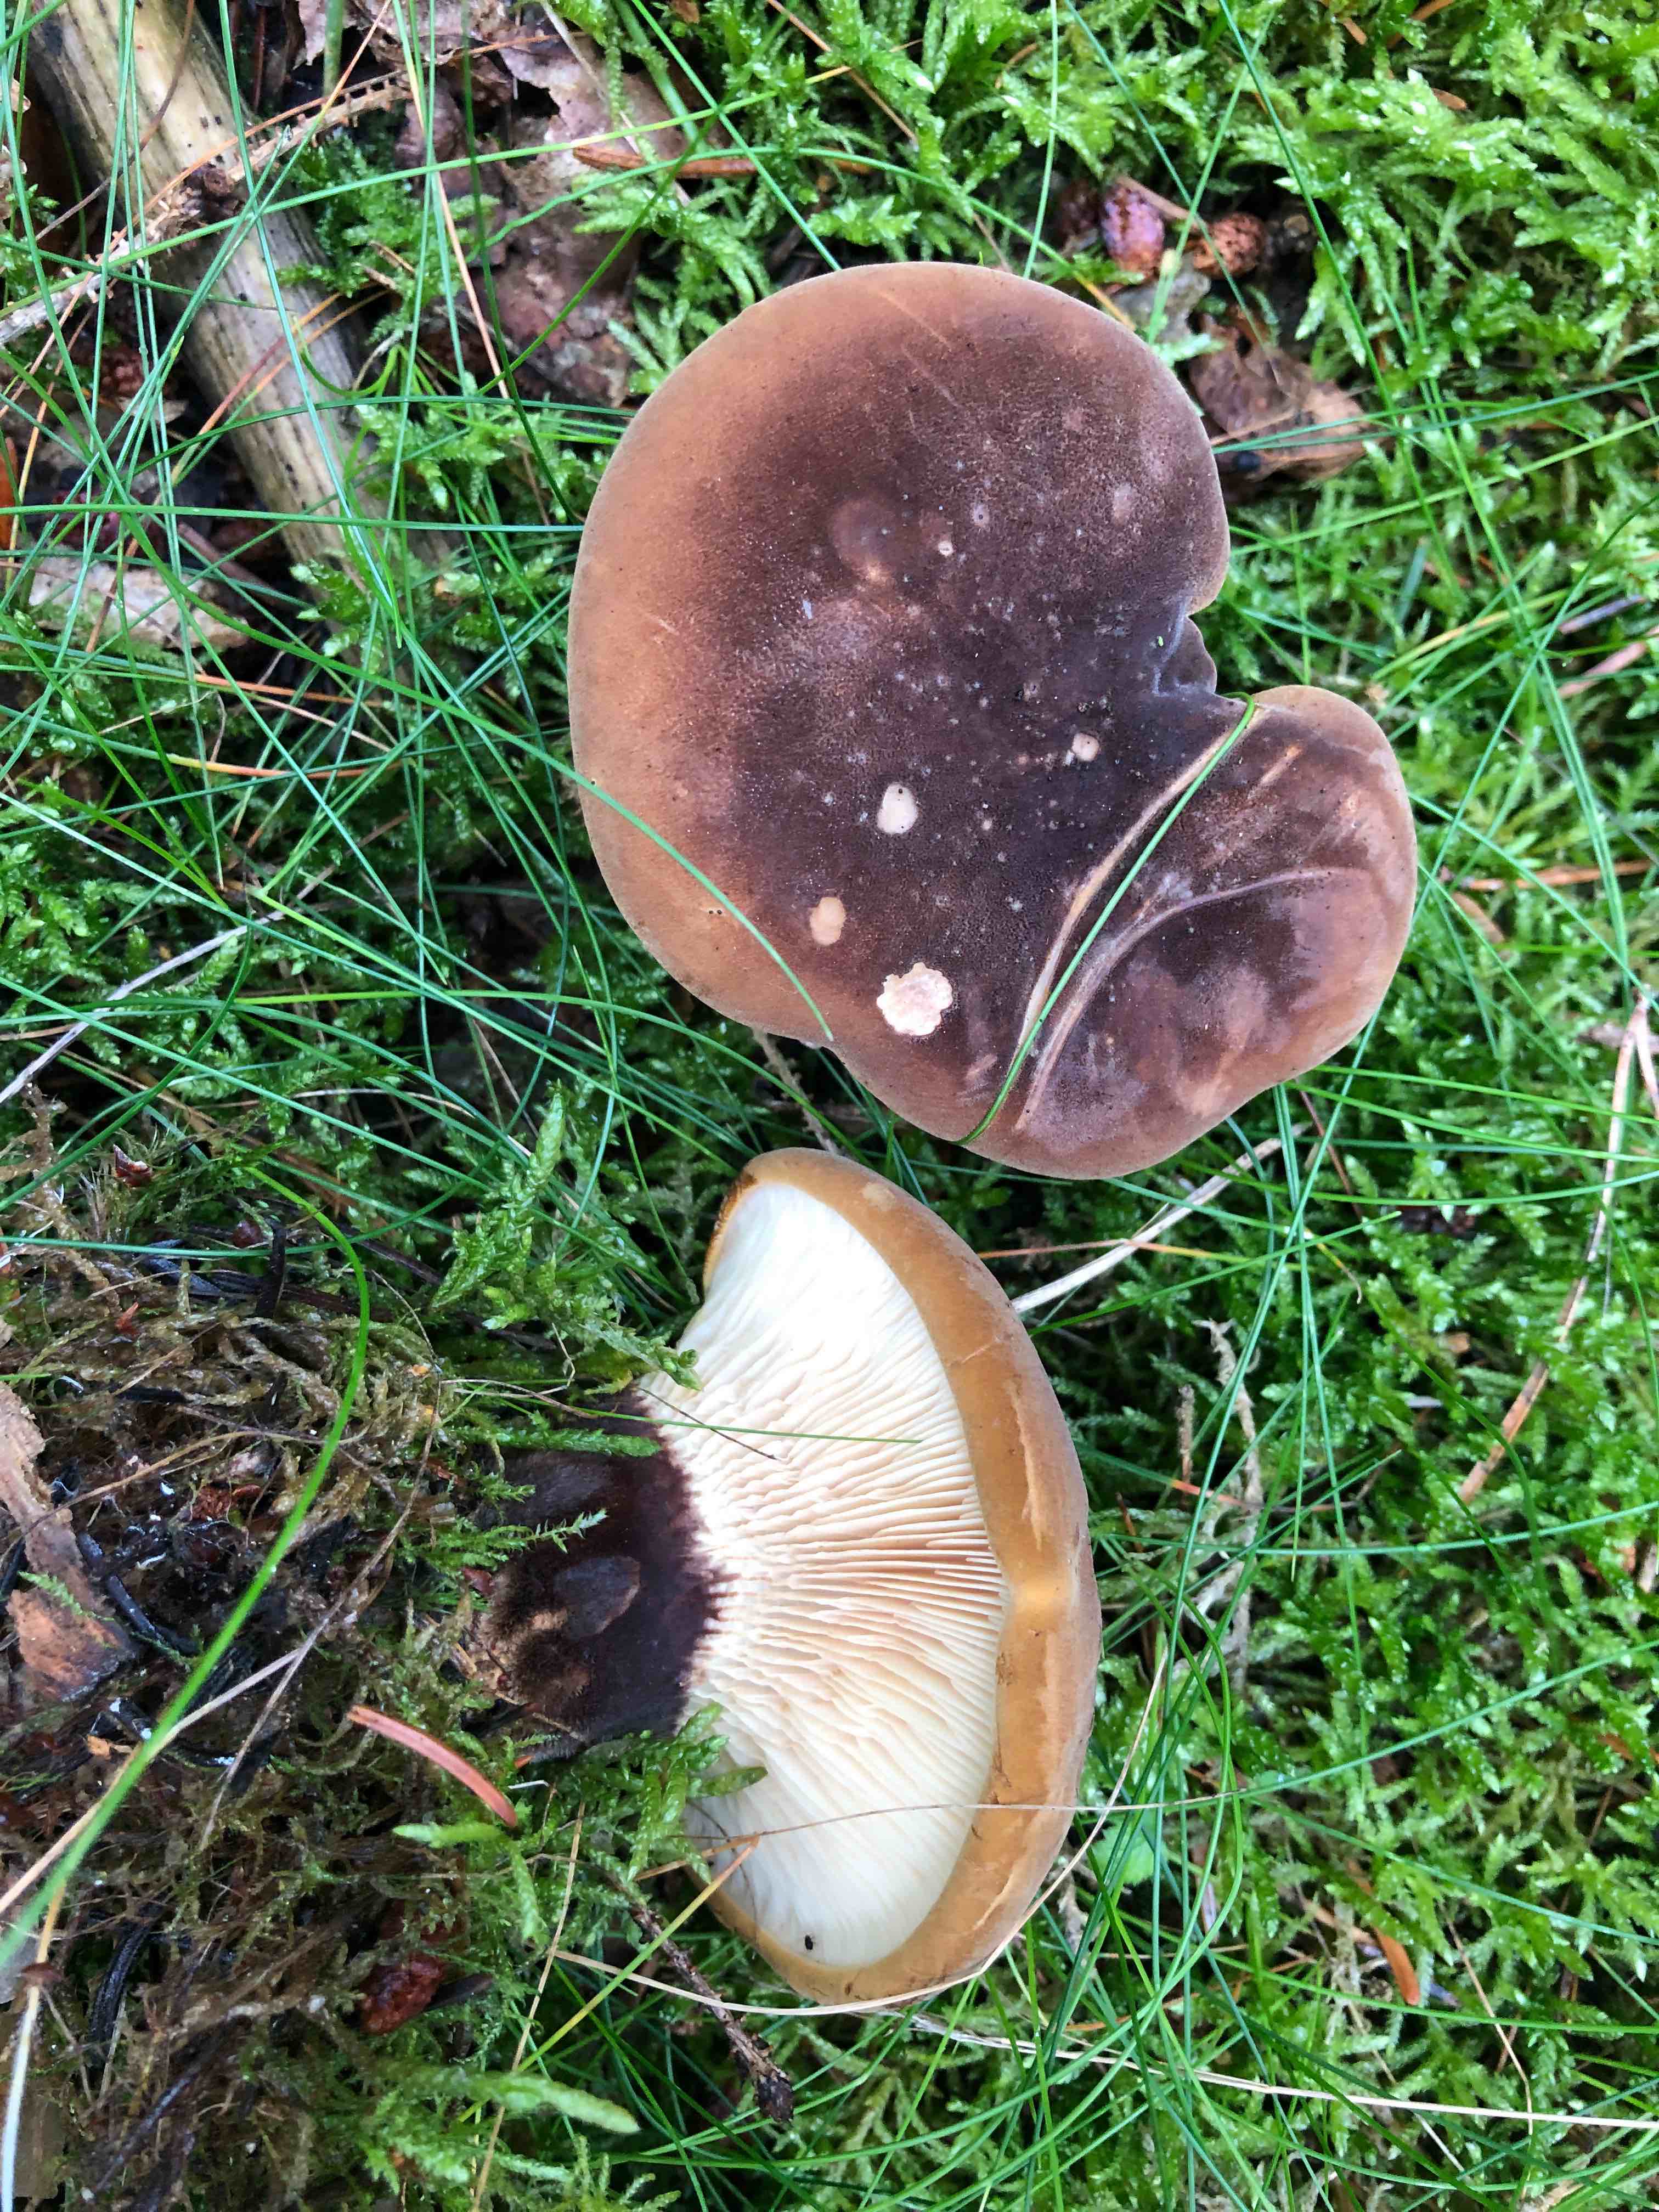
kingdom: Fungi
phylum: Basidiomycota
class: Agaricomycetes
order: Boletales
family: Tapinellaceae
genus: Tapinella
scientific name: Tapinella atrotomentosa
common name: sortfiltet viftesvamp
